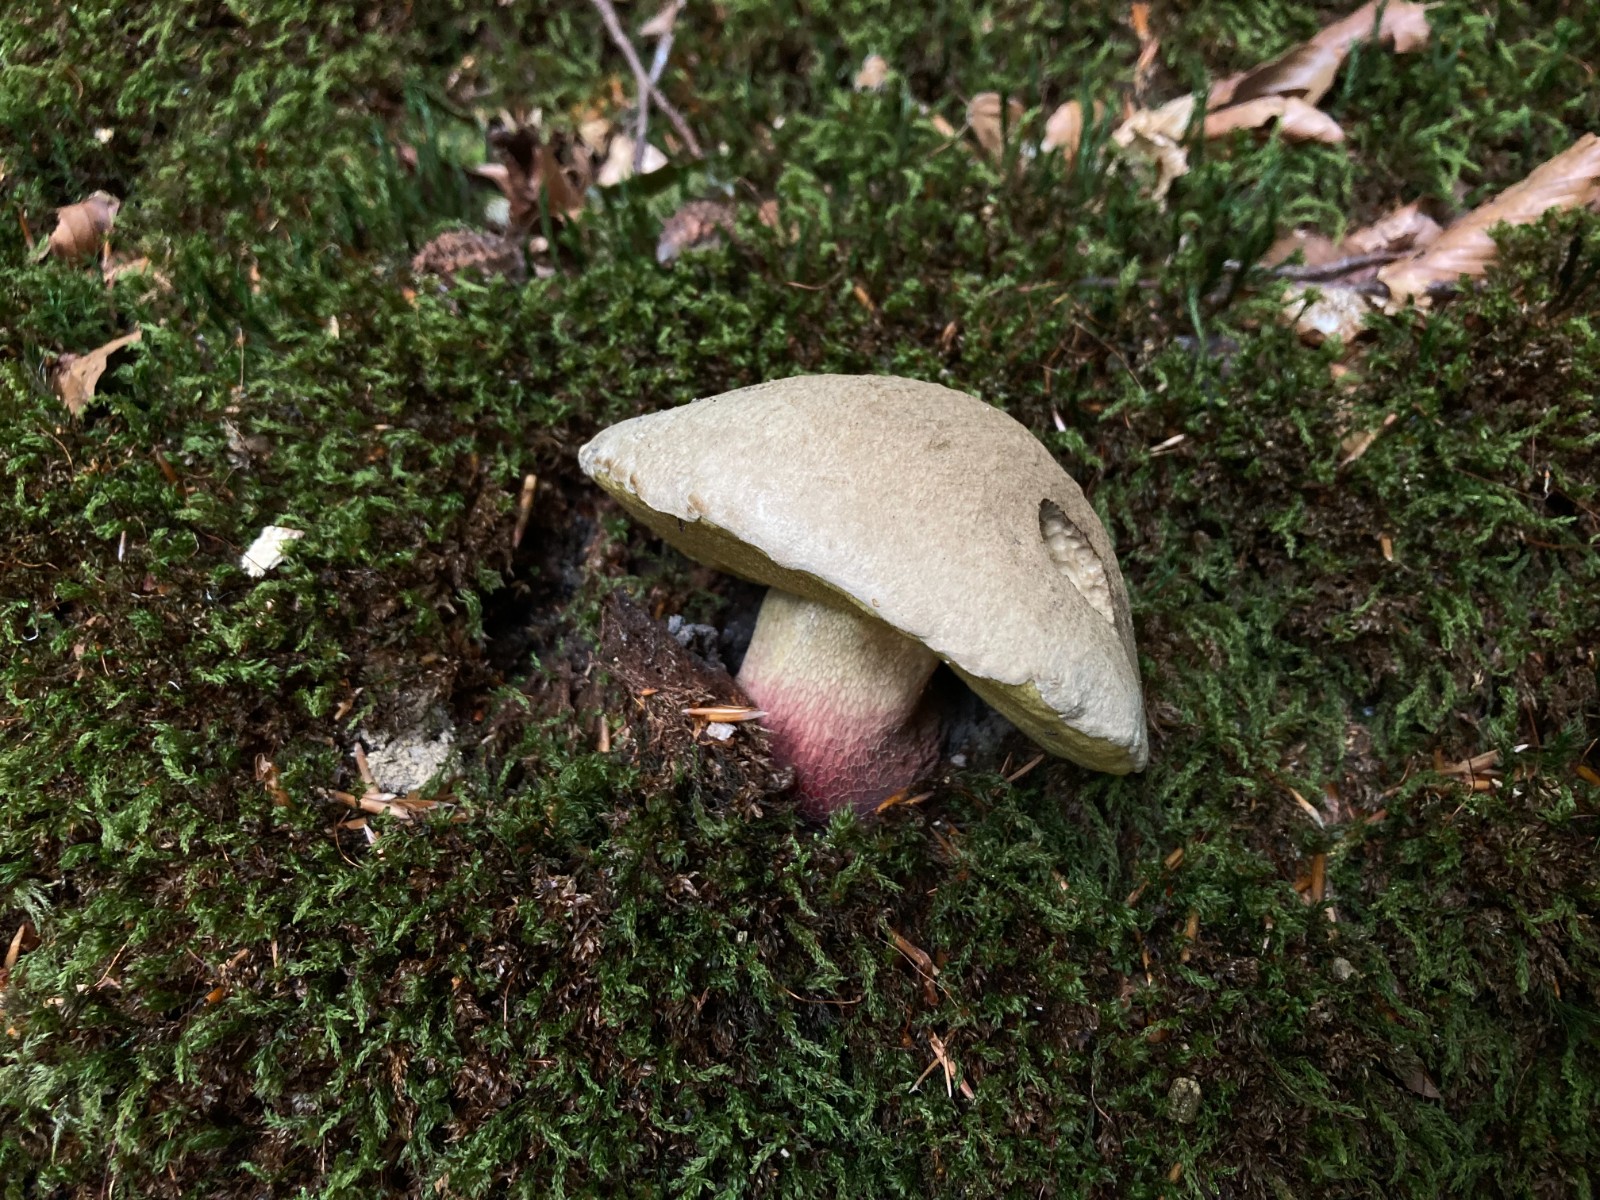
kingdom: Fungi
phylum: Basidiomycota
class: Agaricomycetes
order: Boletales
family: Boletaceae
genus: Caloboletus
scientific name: Caloboletus calopus
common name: skønfodet rørhat
